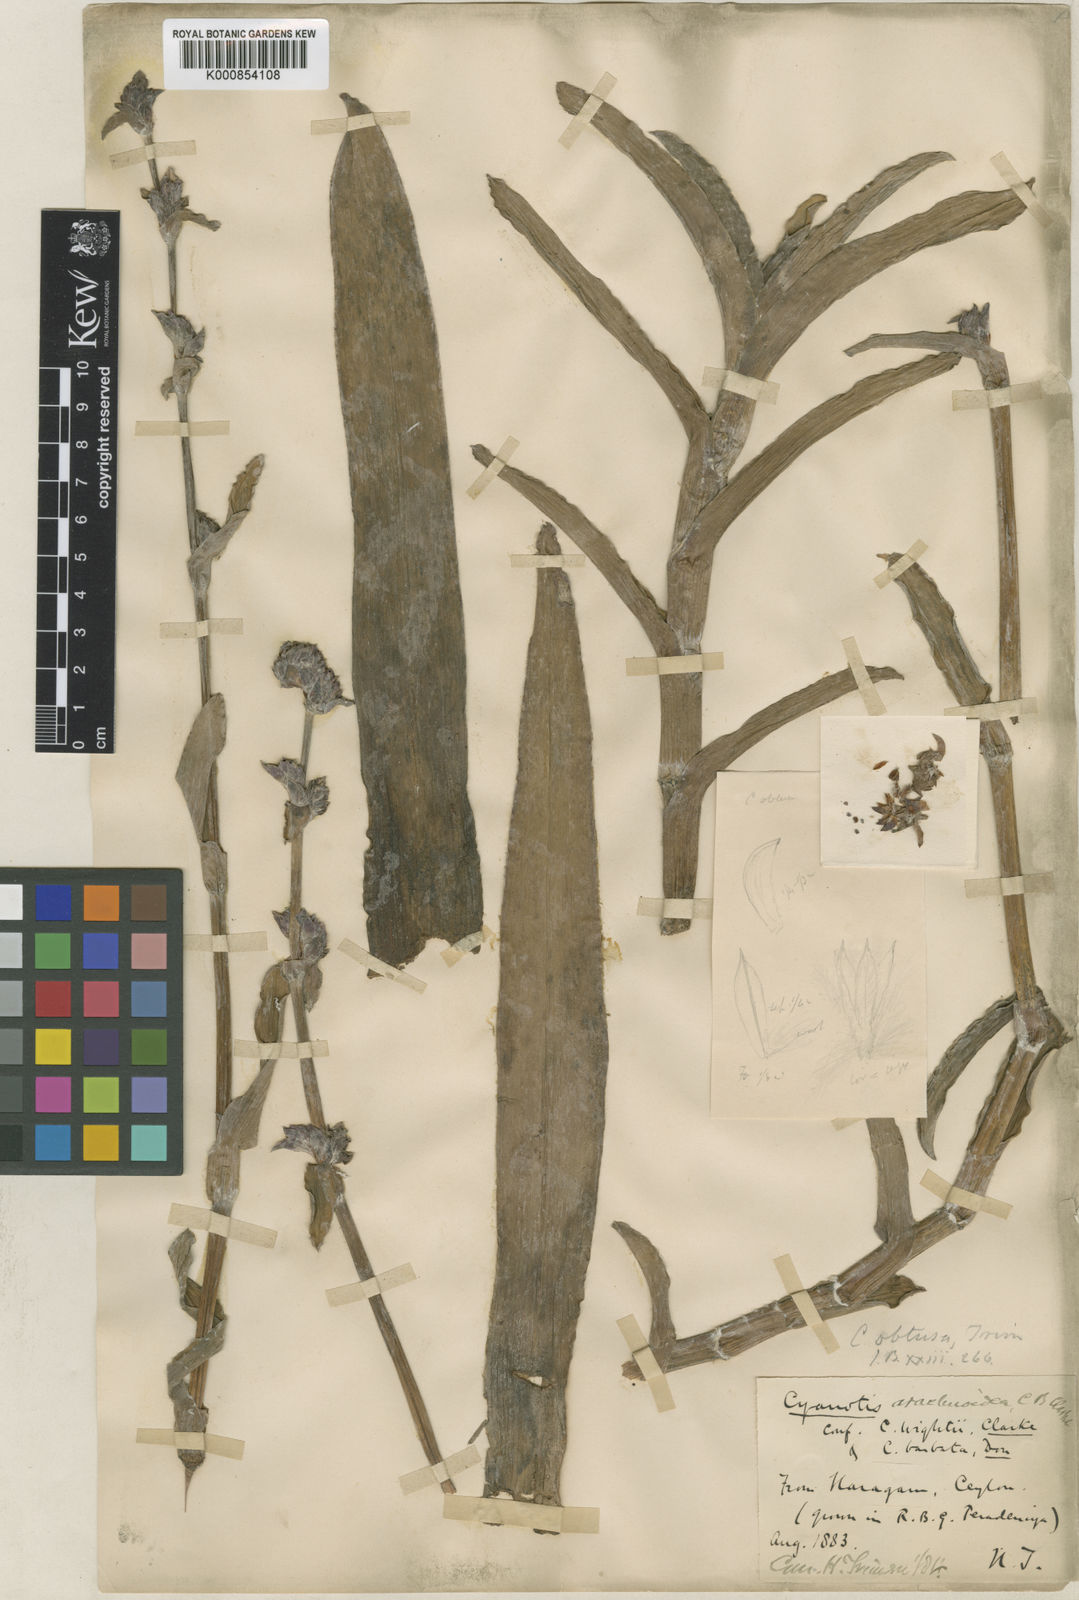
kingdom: Plantae
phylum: Tracheophyta
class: Liliopsida
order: Commelinales
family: Commelinaceae
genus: Cyanotis
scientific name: Cyanotis
